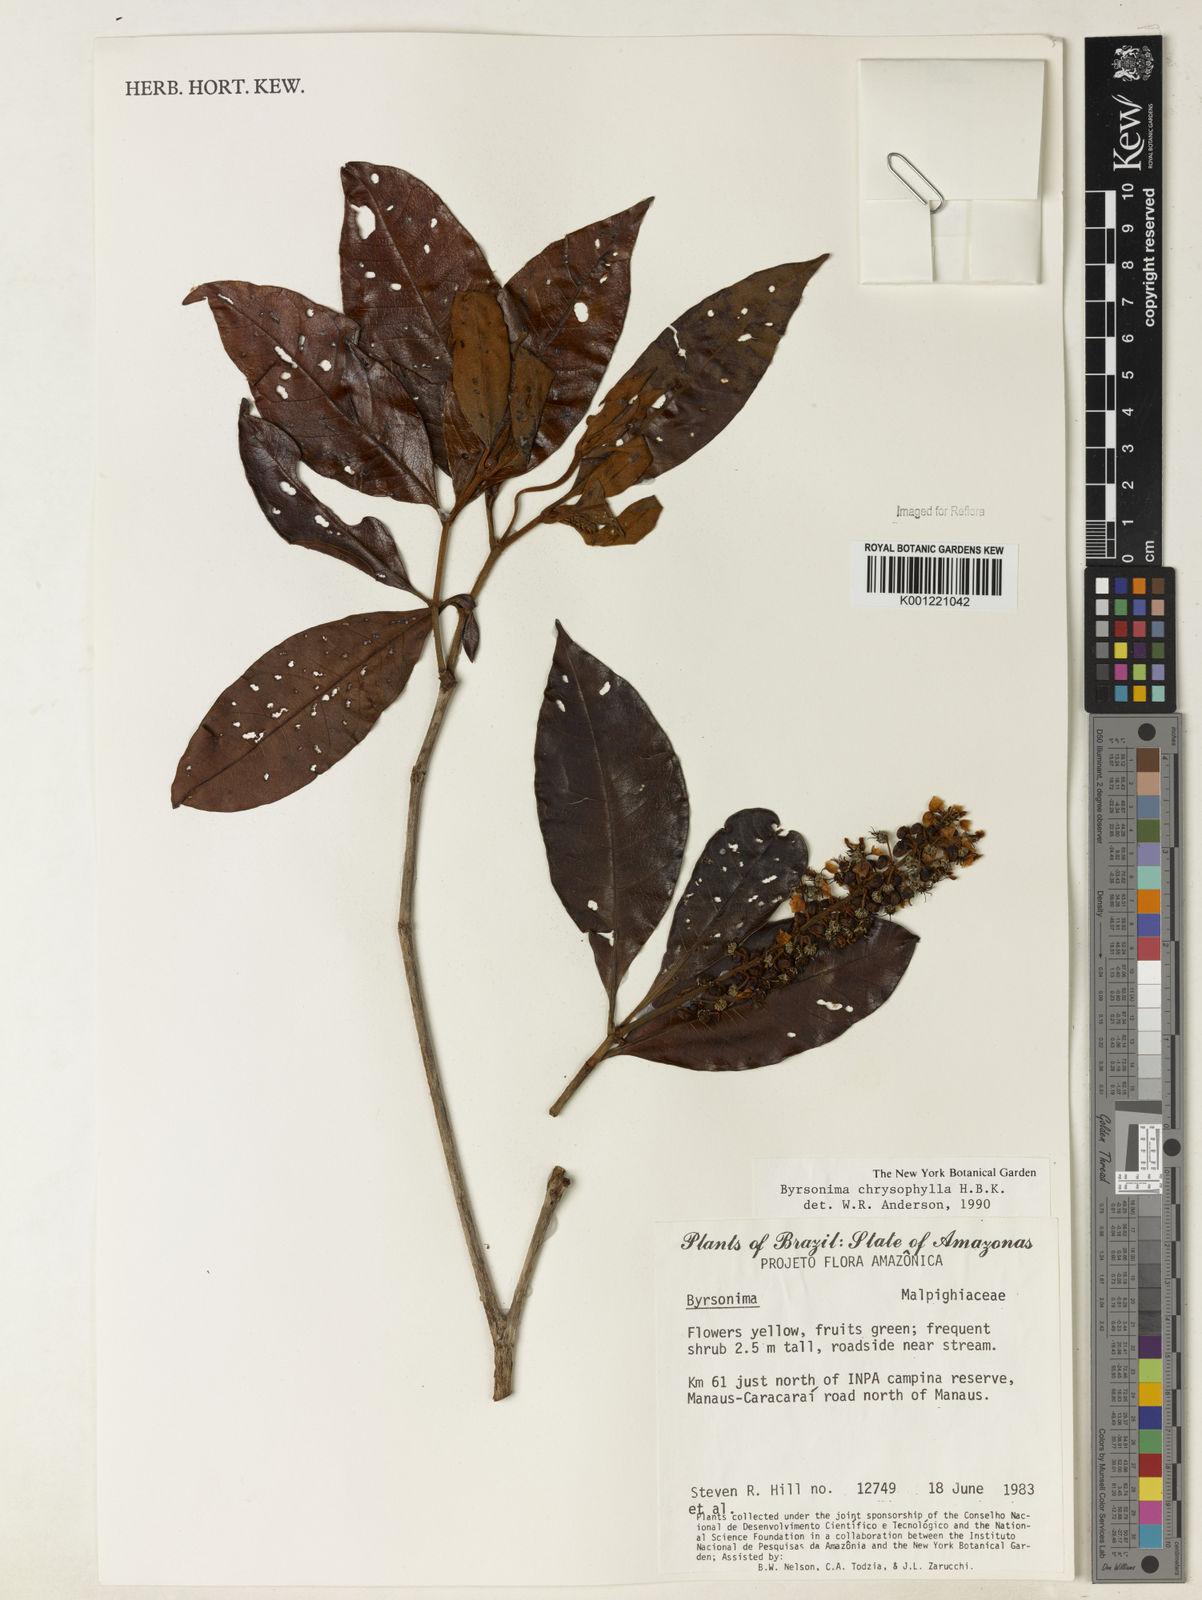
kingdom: Plantae
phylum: Tracheophyta
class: Magnoliopsida
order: Malpighiales
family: Malpighiaceae
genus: Byrsonima
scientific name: Byrsonima chrysophylla
